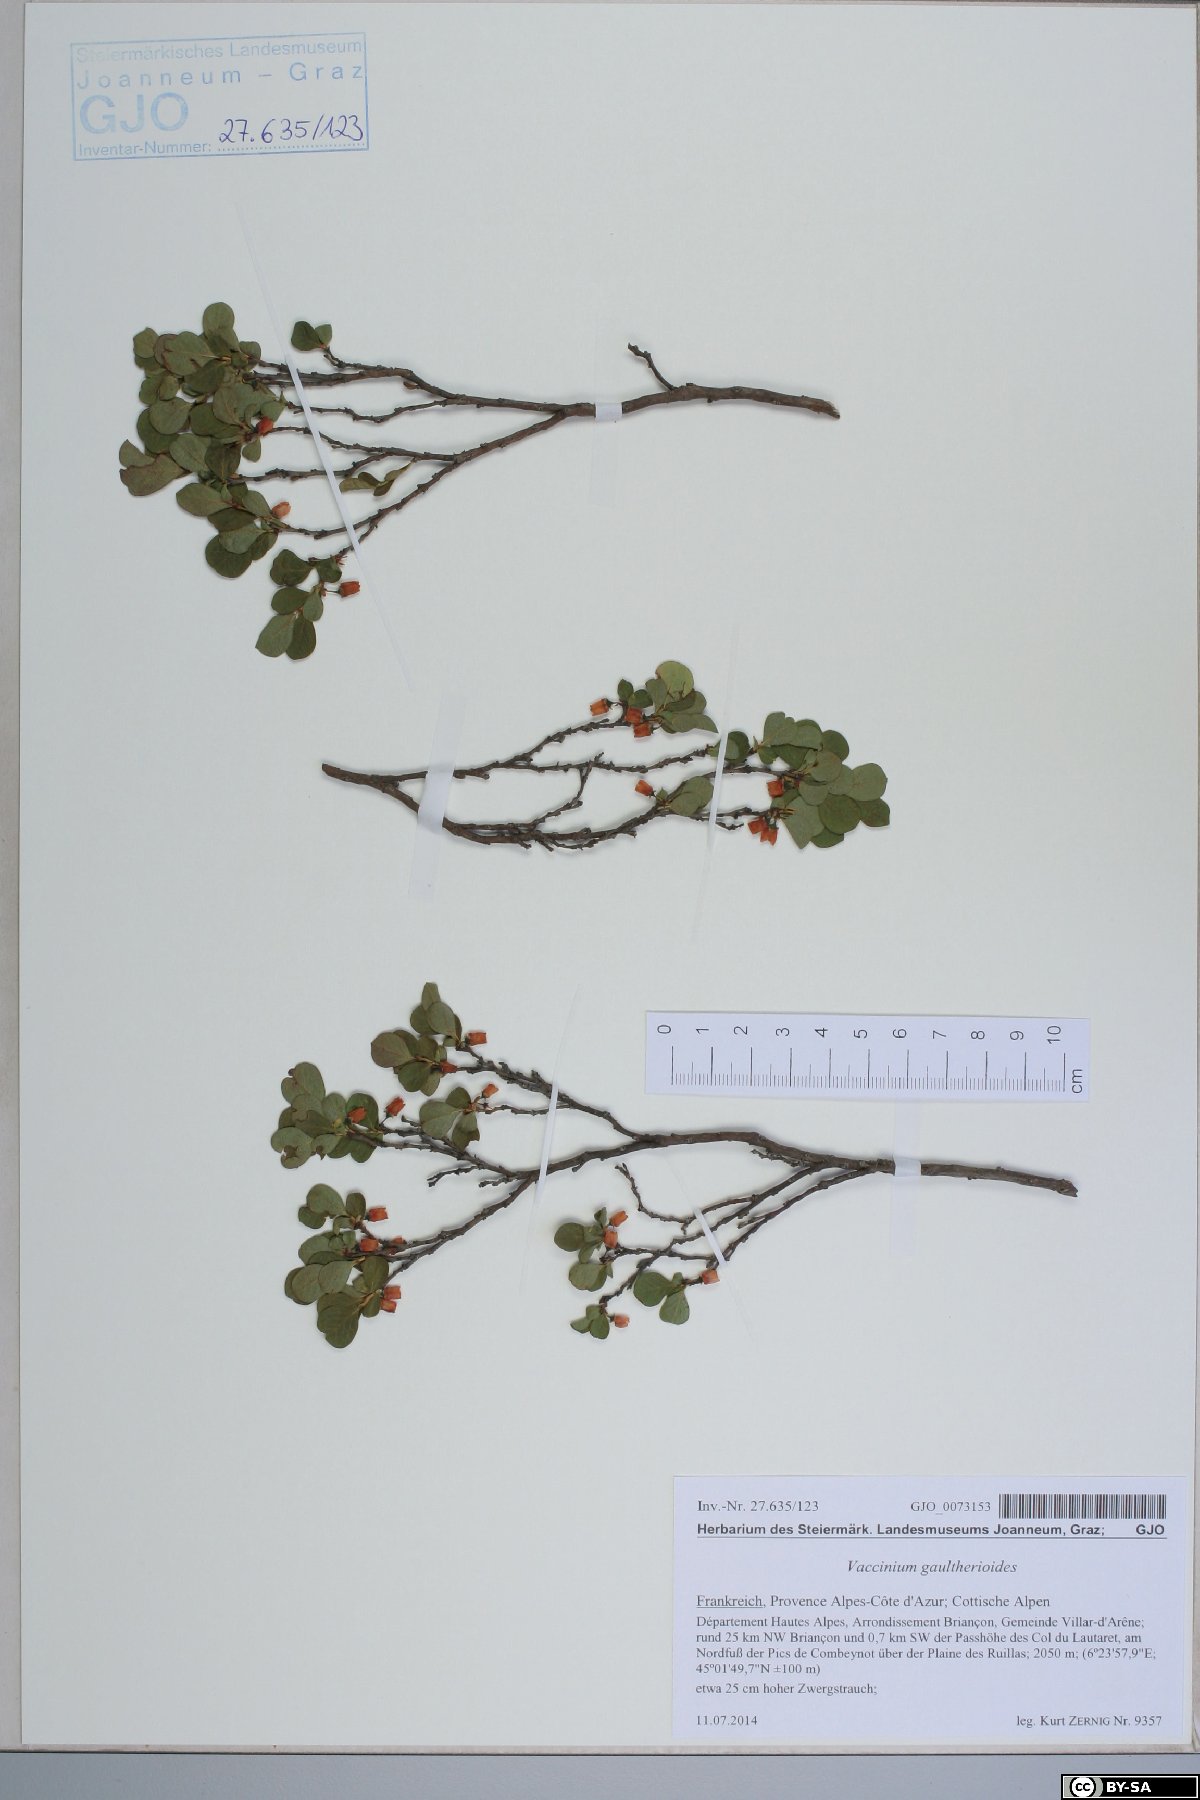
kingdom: Plantae
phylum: Tracheophyta
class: Magnoliopsida
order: Ericales
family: Ericaceae
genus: Vaccinium
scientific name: Vaccinium gaultherioides
